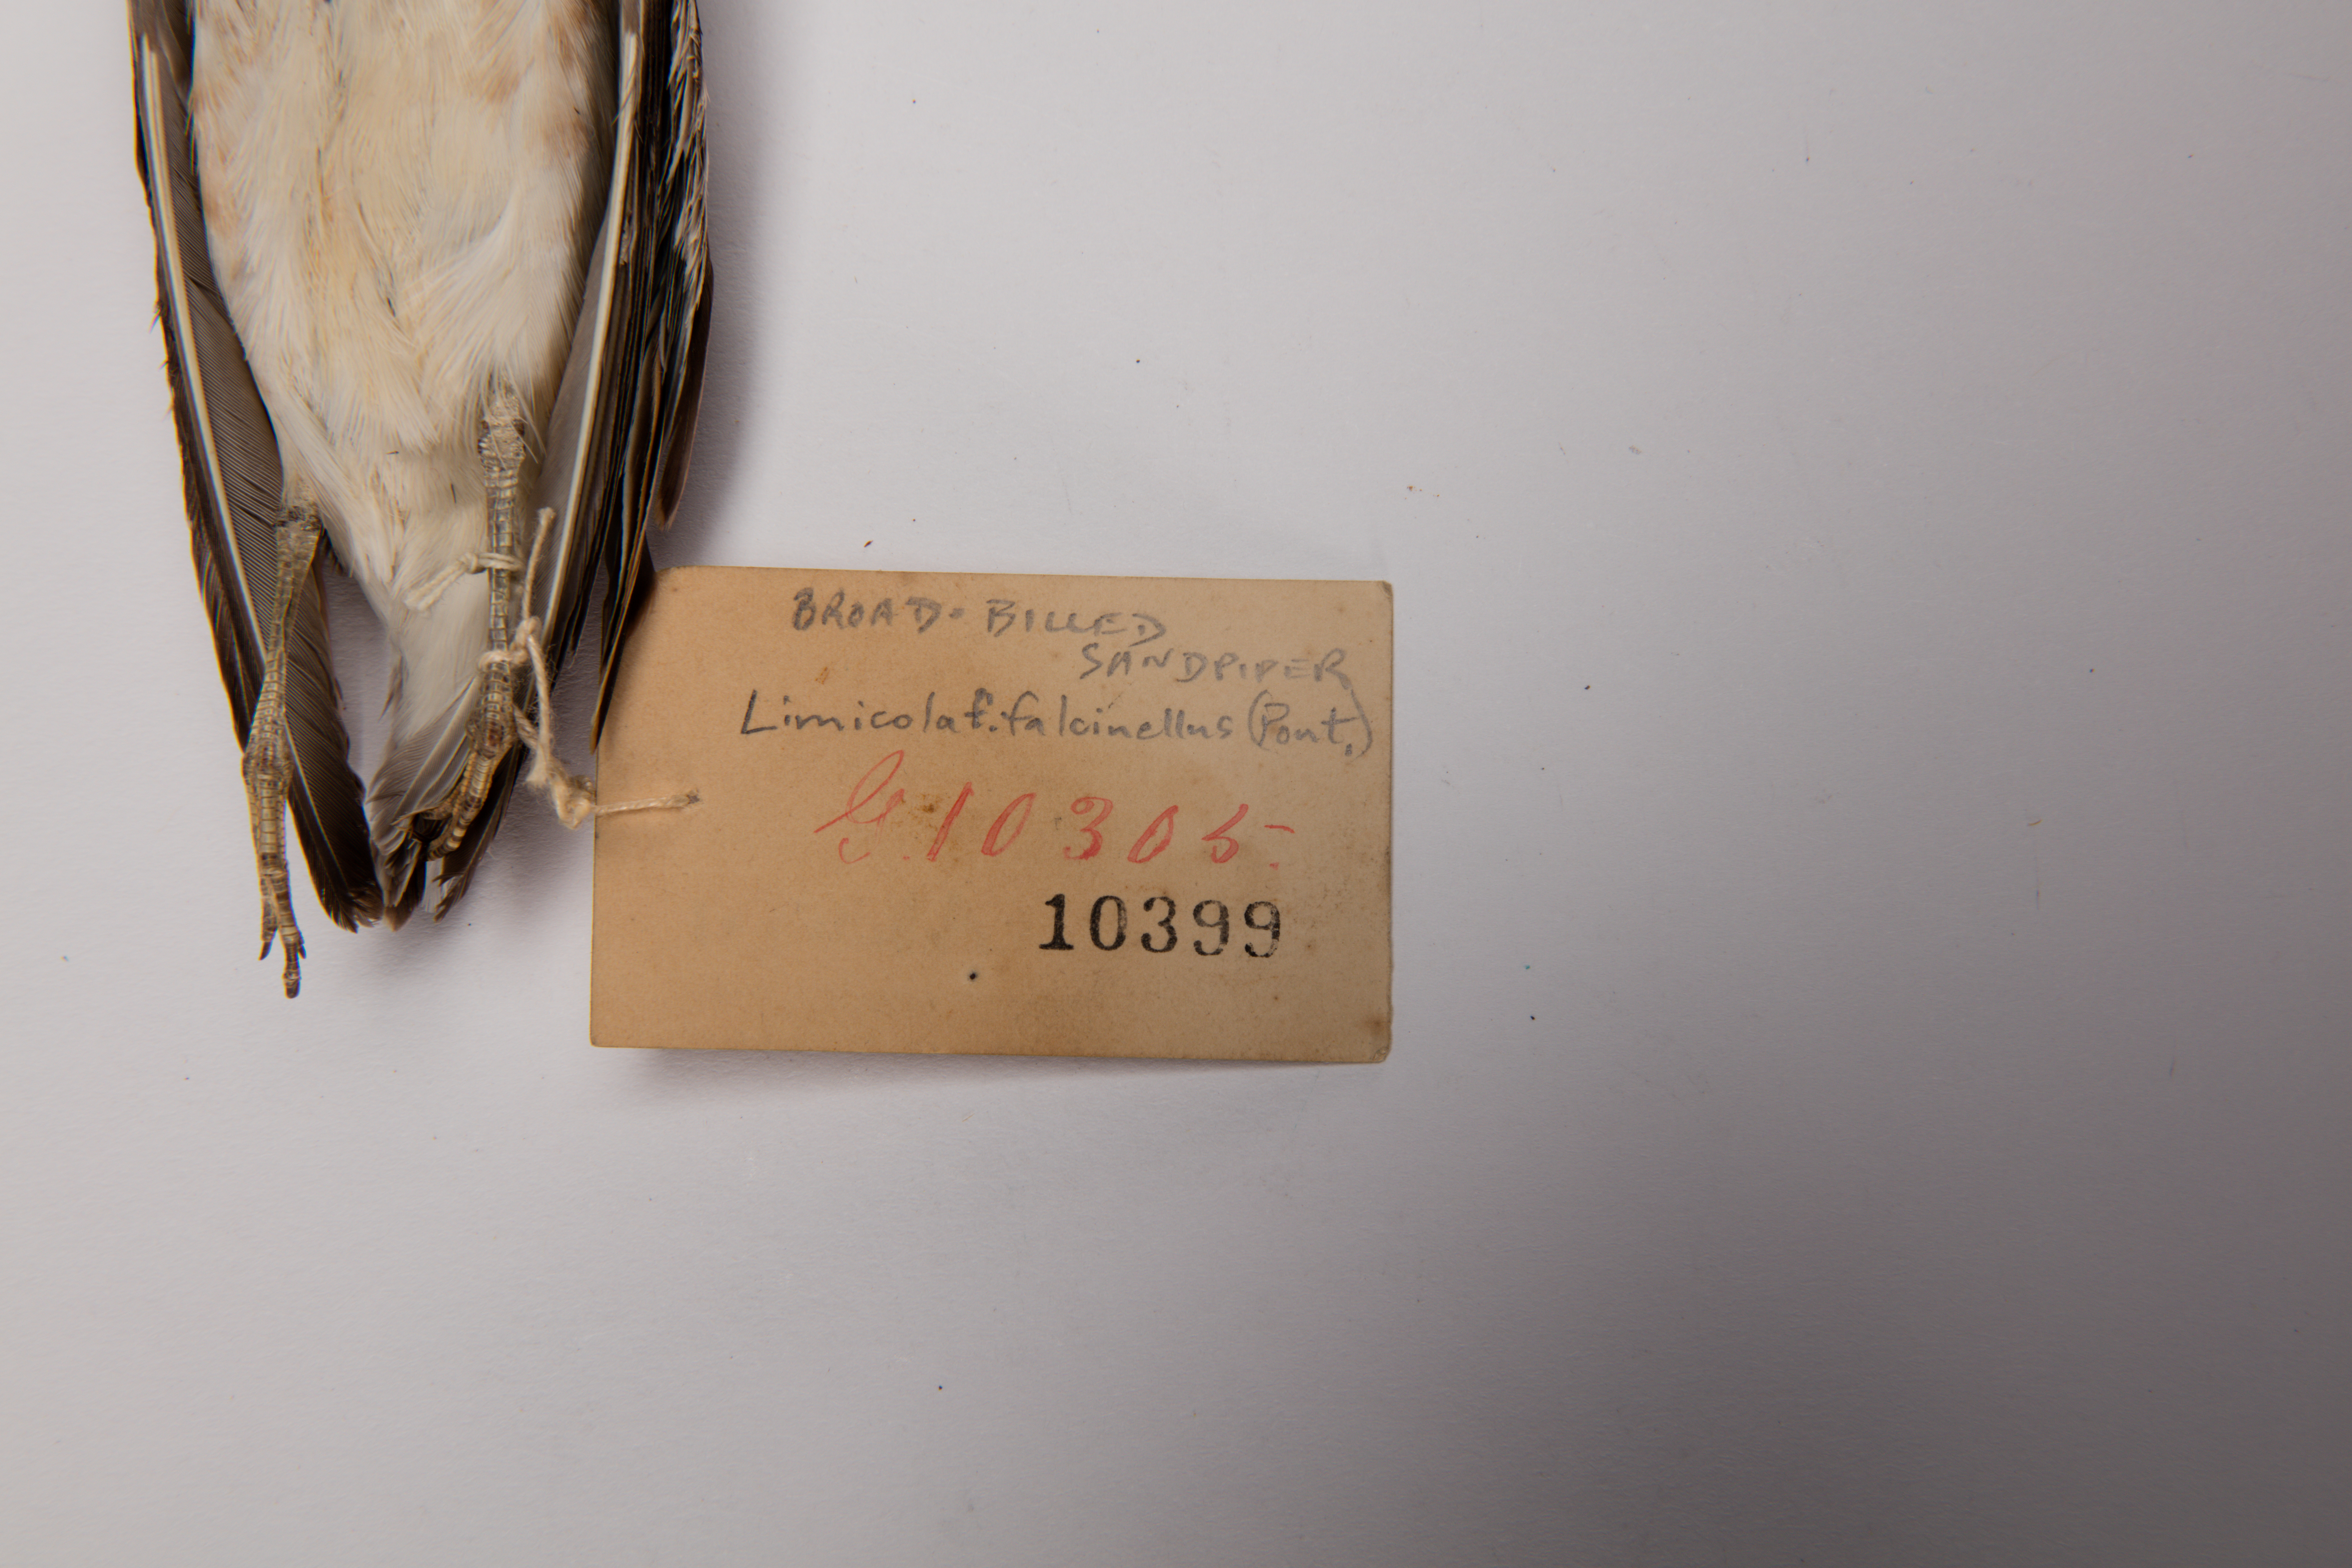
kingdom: Animalia
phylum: Chordata
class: Aves
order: Charadriiformes
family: Scolopacidae
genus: Calidris
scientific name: Calidris falcinellus
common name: Broad-billed sandpiper
